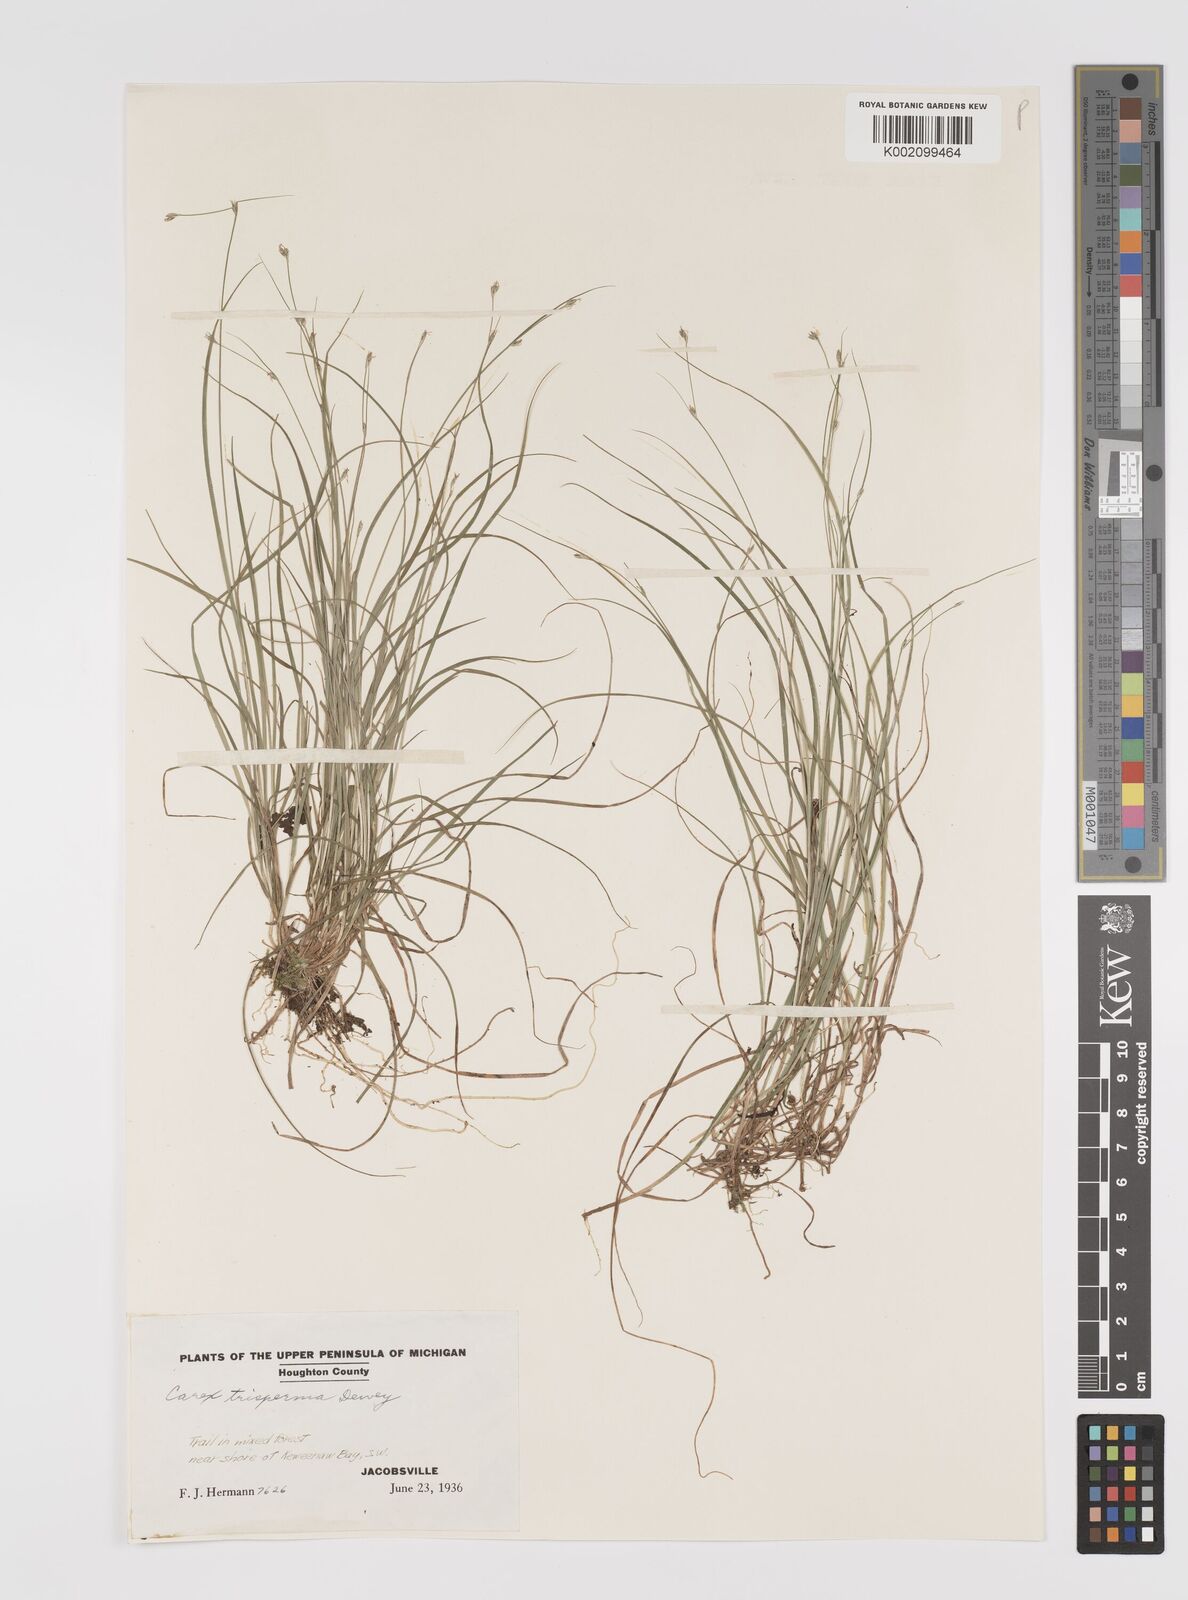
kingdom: Plantae
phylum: Tracheophyta
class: Liliopsida
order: Poales
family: Cyperaceae
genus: Carex
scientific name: Carex trisperma
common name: Three-seeded sedge
